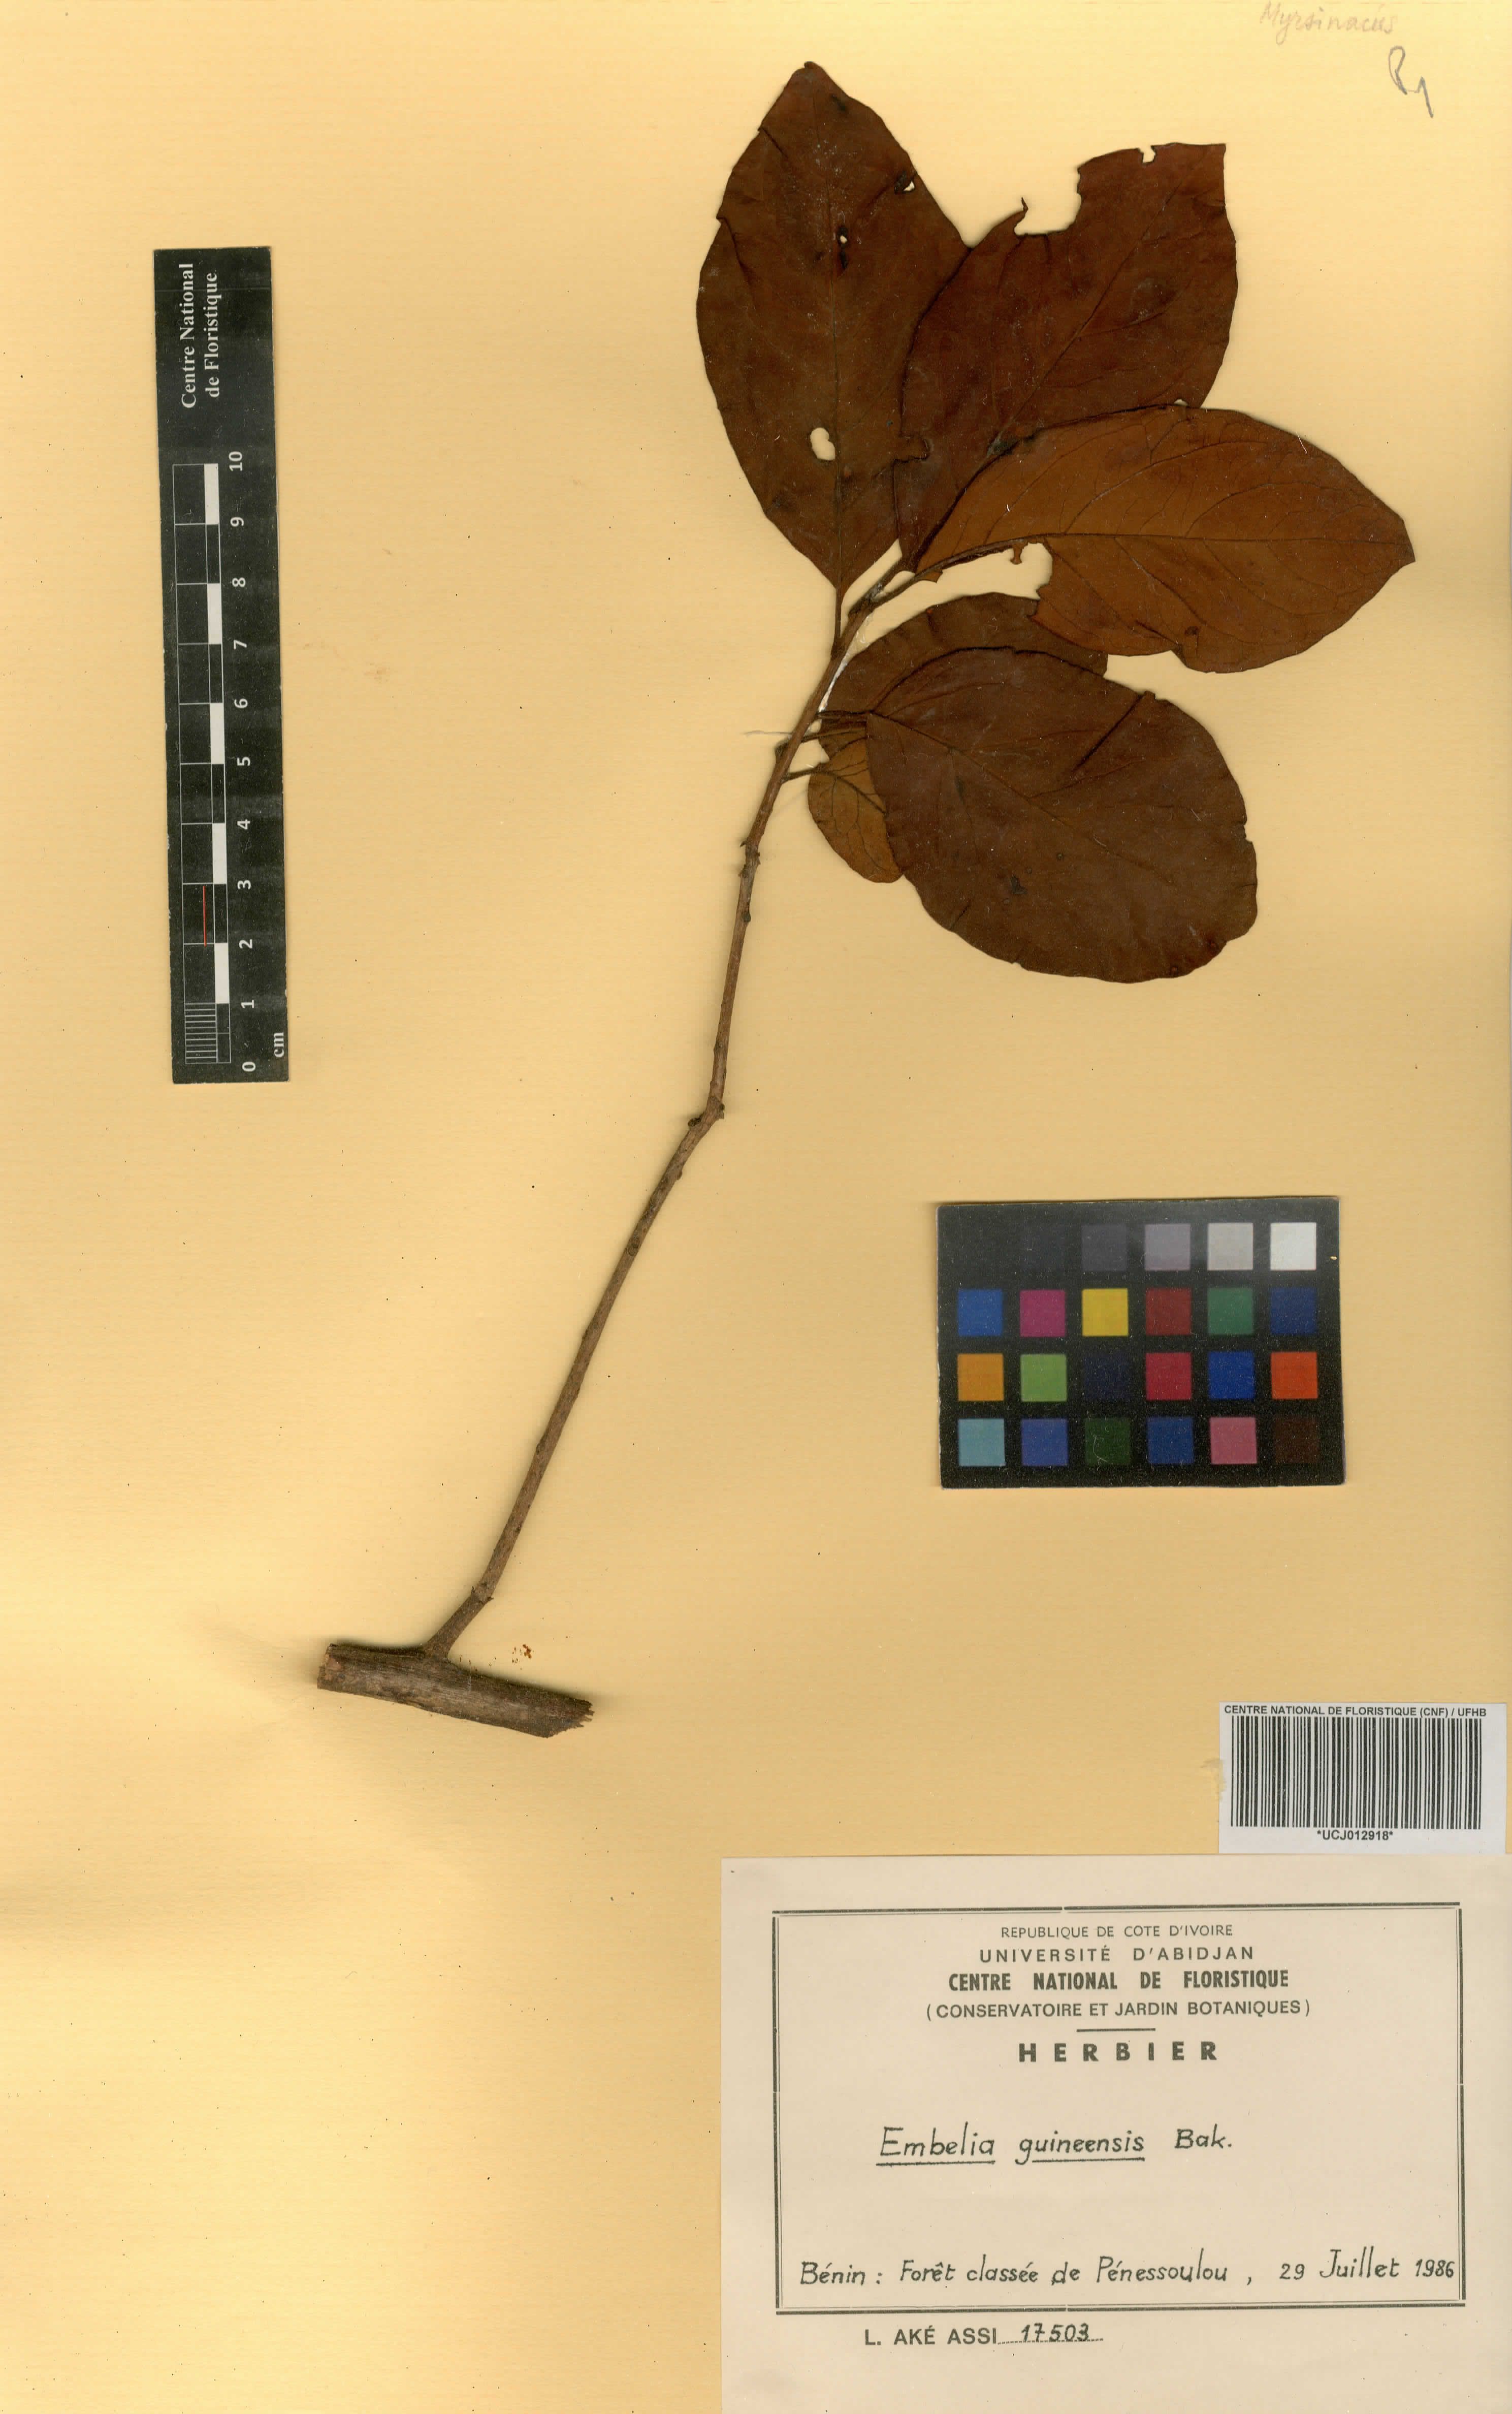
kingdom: Plantae
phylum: Tracheophyta
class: Magnoliopsida
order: Ericales
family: Primulaceae
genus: Embelia
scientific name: Embelia djalonensis
